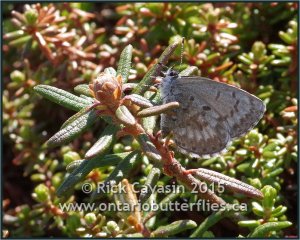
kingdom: Animalia
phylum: Arthropoda
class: Insecta
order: Lepidoptera
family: Lycaenidae
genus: Celastrina
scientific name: Celastrina lucia
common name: Northern Spring Azure
